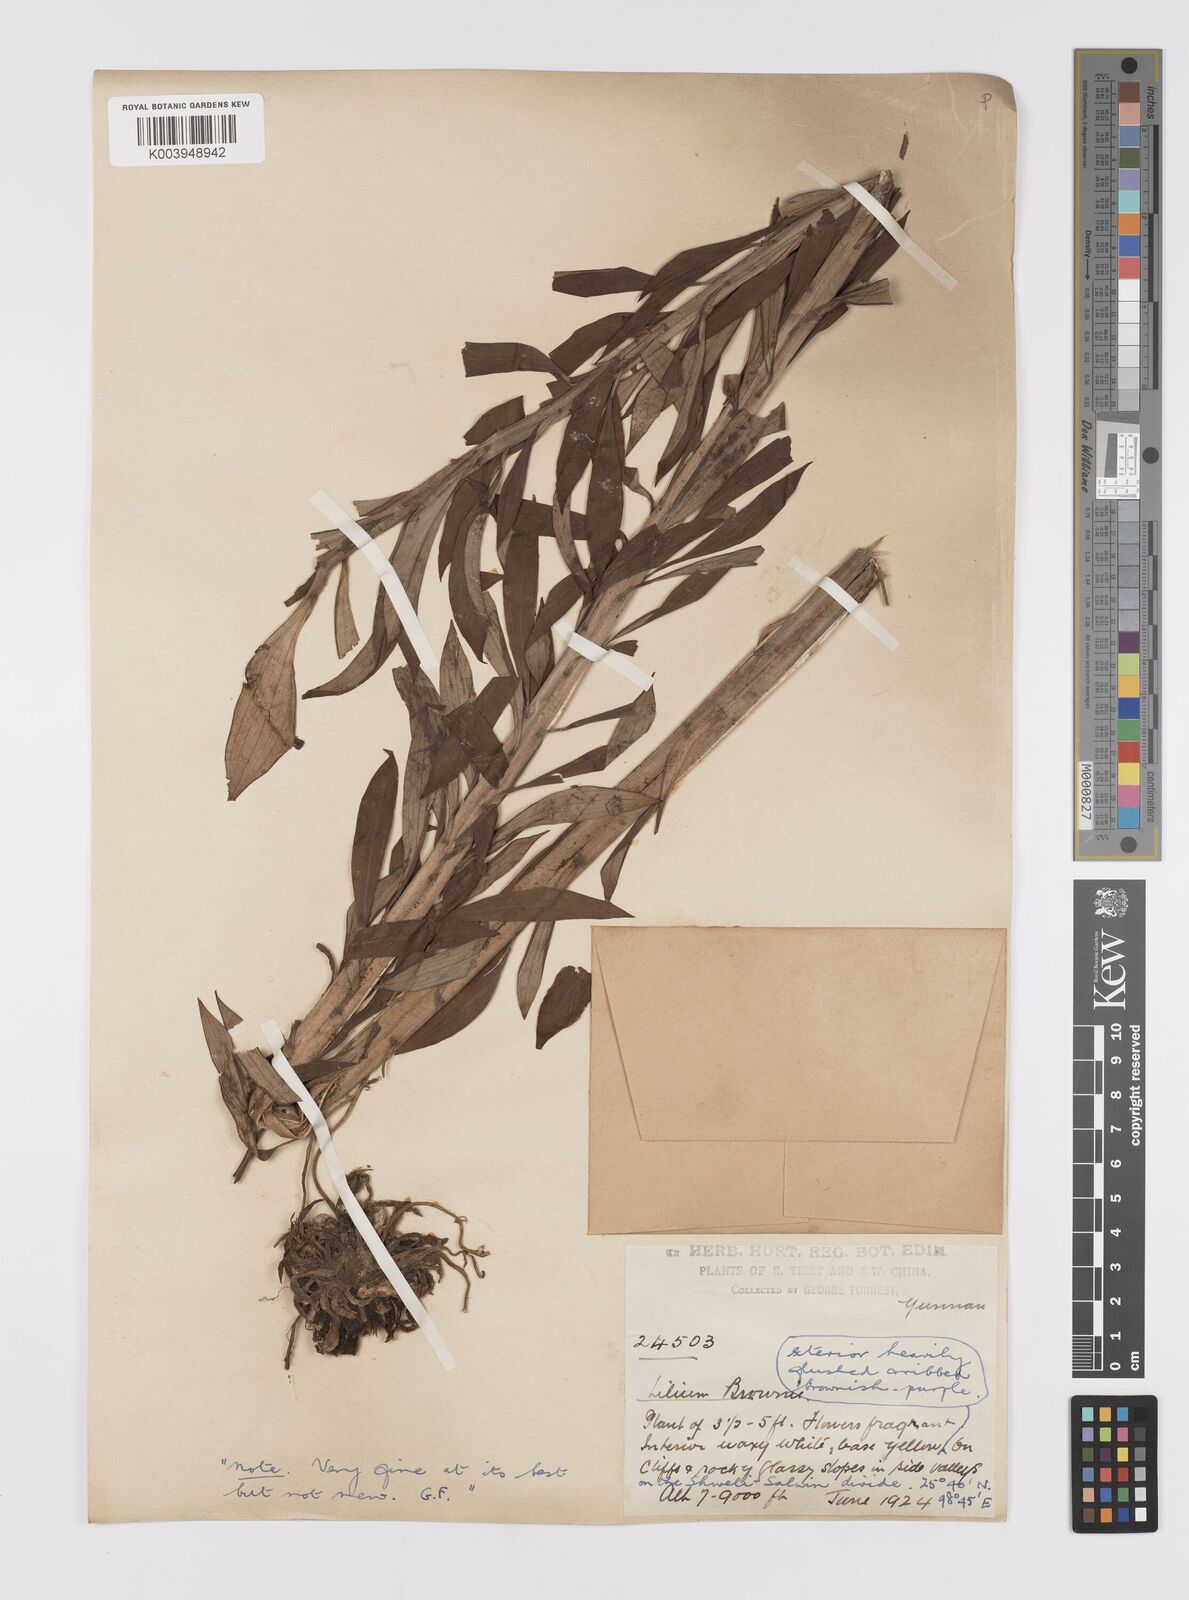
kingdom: Plantae
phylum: Tracheophyta
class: Liliopsida
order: Liliales
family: Liliaceae
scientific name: Liliaceae
